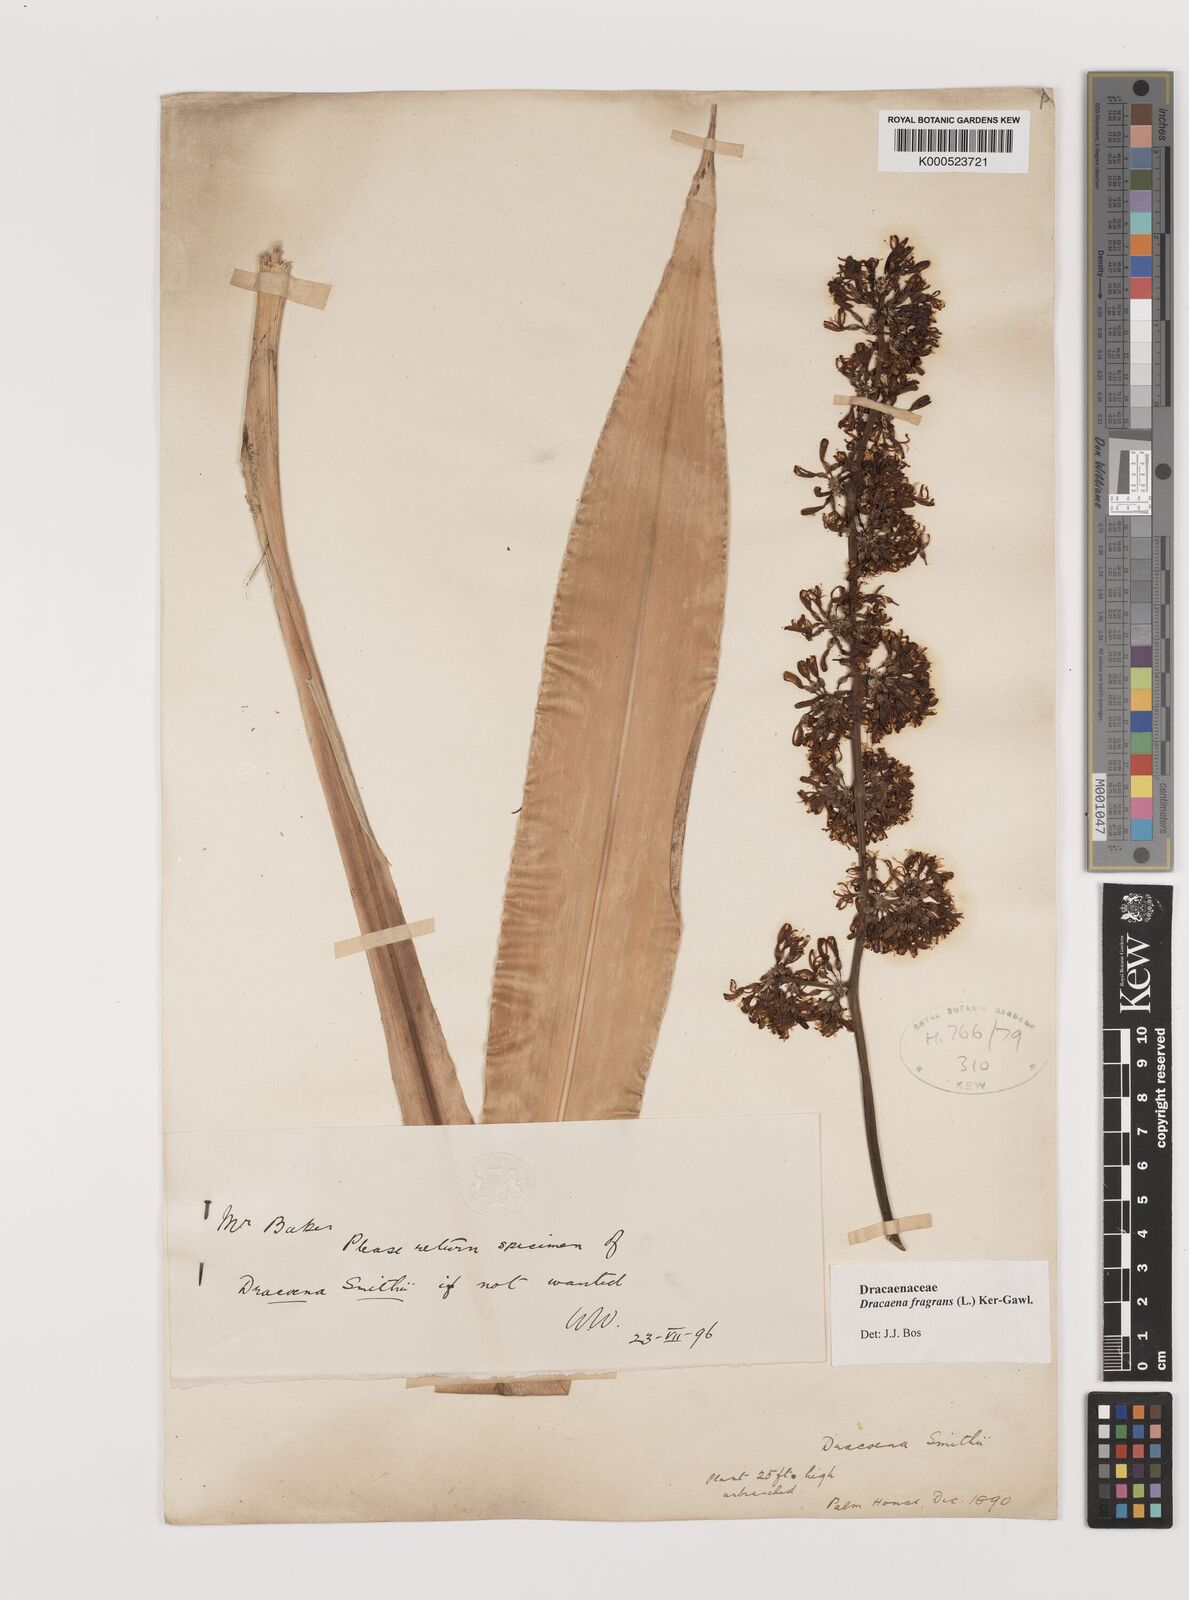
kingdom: Plantae
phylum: Tracheophyta
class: Liliopsida
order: Asparagales
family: Asparagaceae
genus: Dracaena
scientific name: Dracaena fragrans
